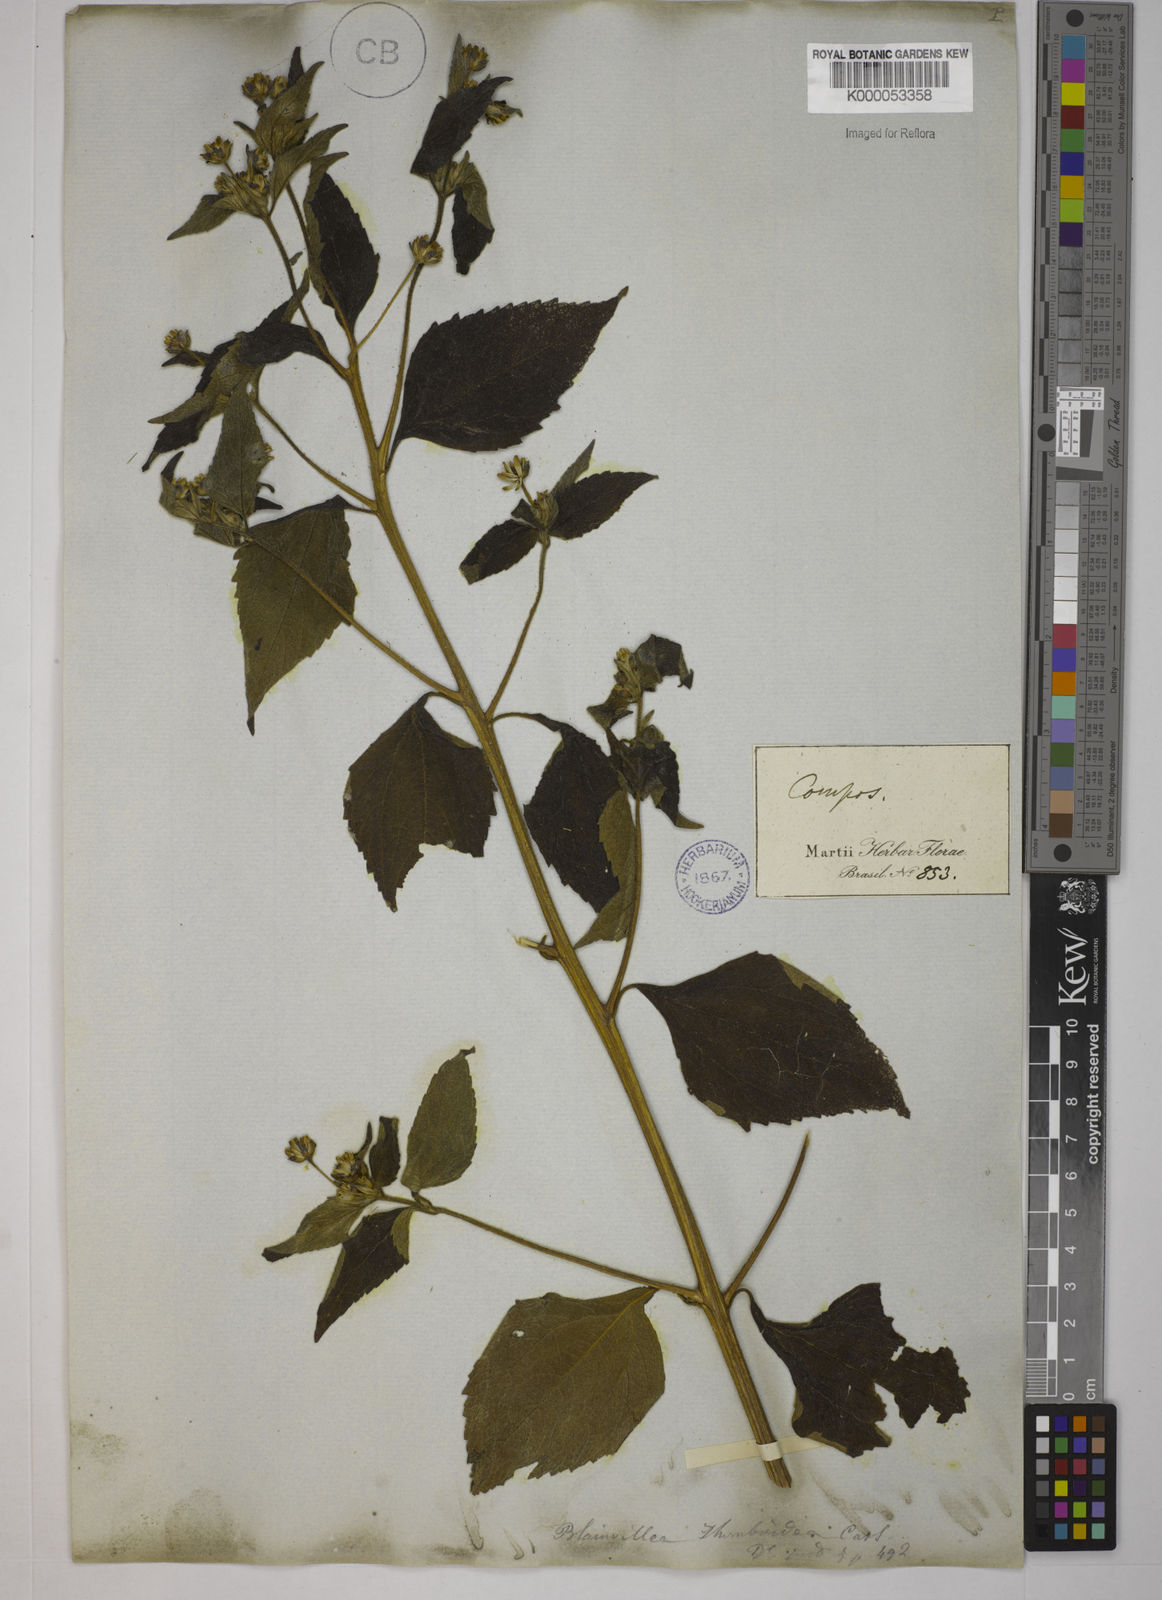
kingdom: Plantae
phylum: Tracheophyta
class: Magnoliopsida
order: Asterales
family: Asteraceae
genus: Blainvillea
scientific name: Blainvillea acmella
